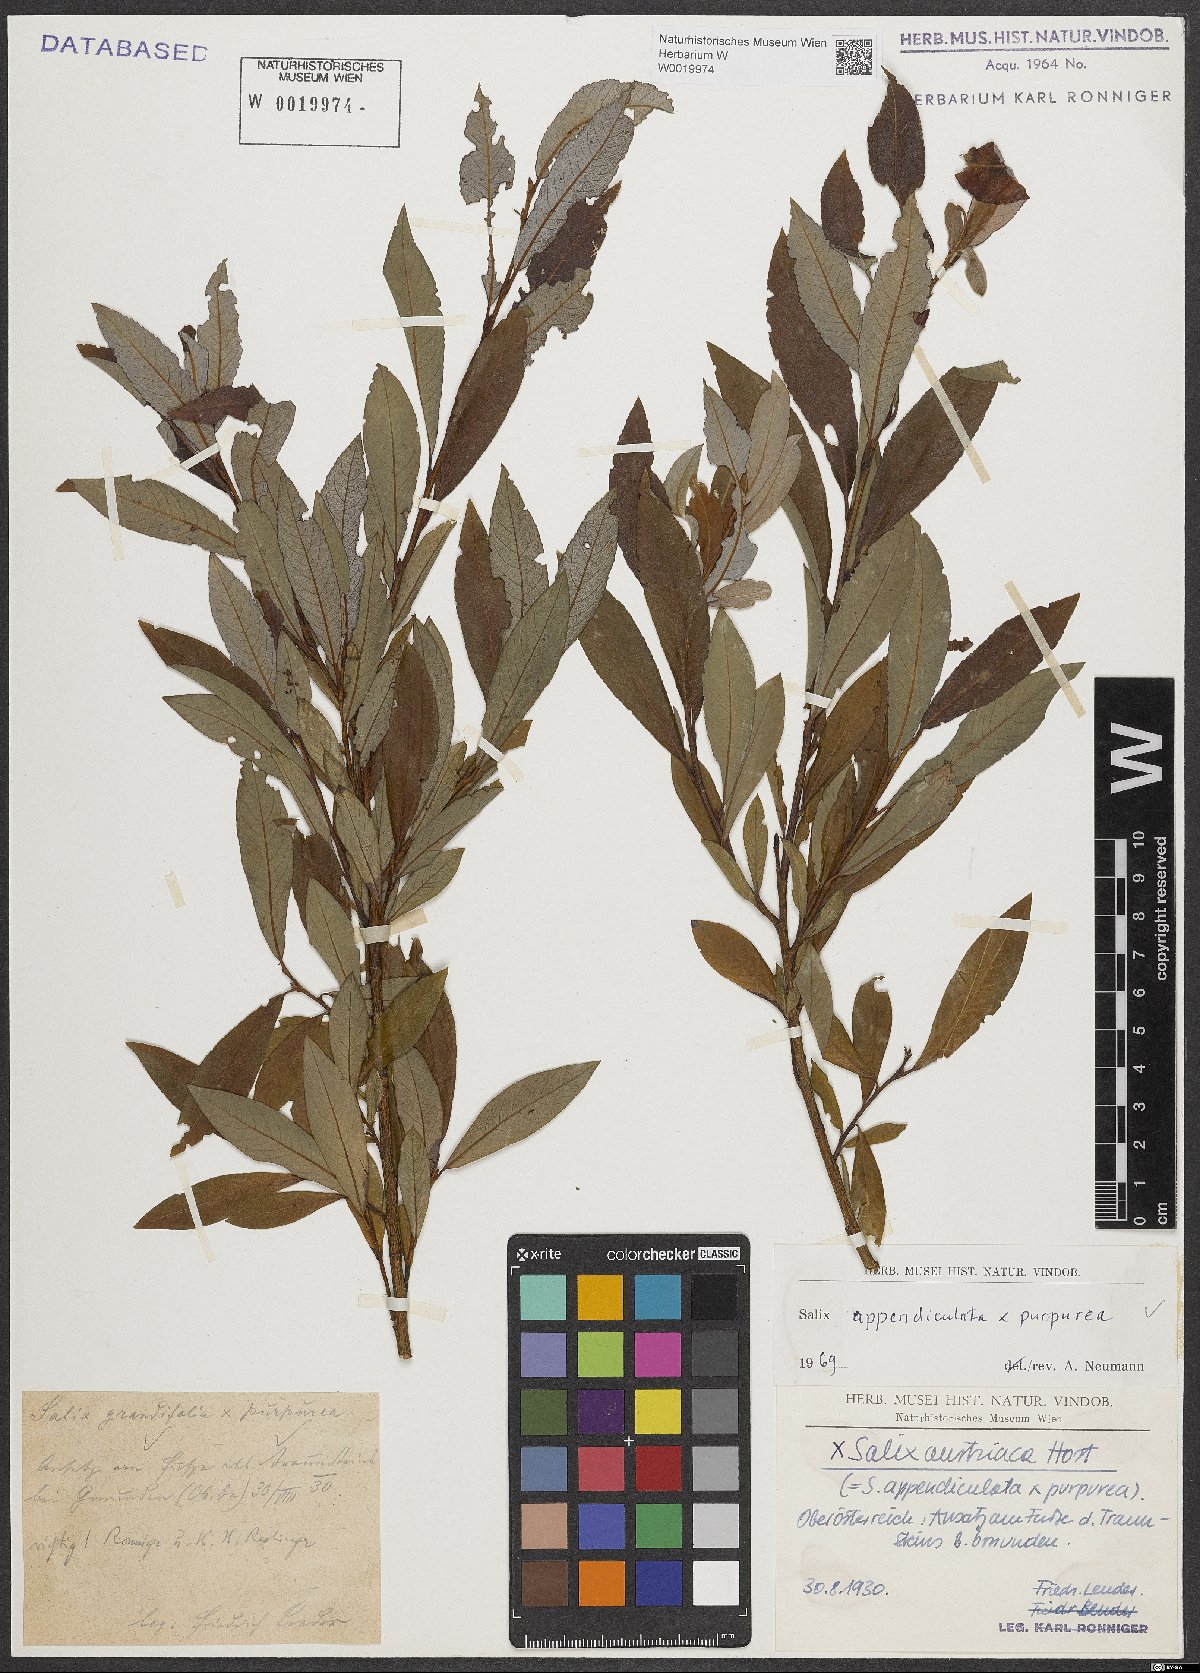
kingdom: Plantae
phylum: Tracheophyta
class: Magnoliopsida
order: Malpighiales
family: Salicaceae
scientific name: Salicaceae
